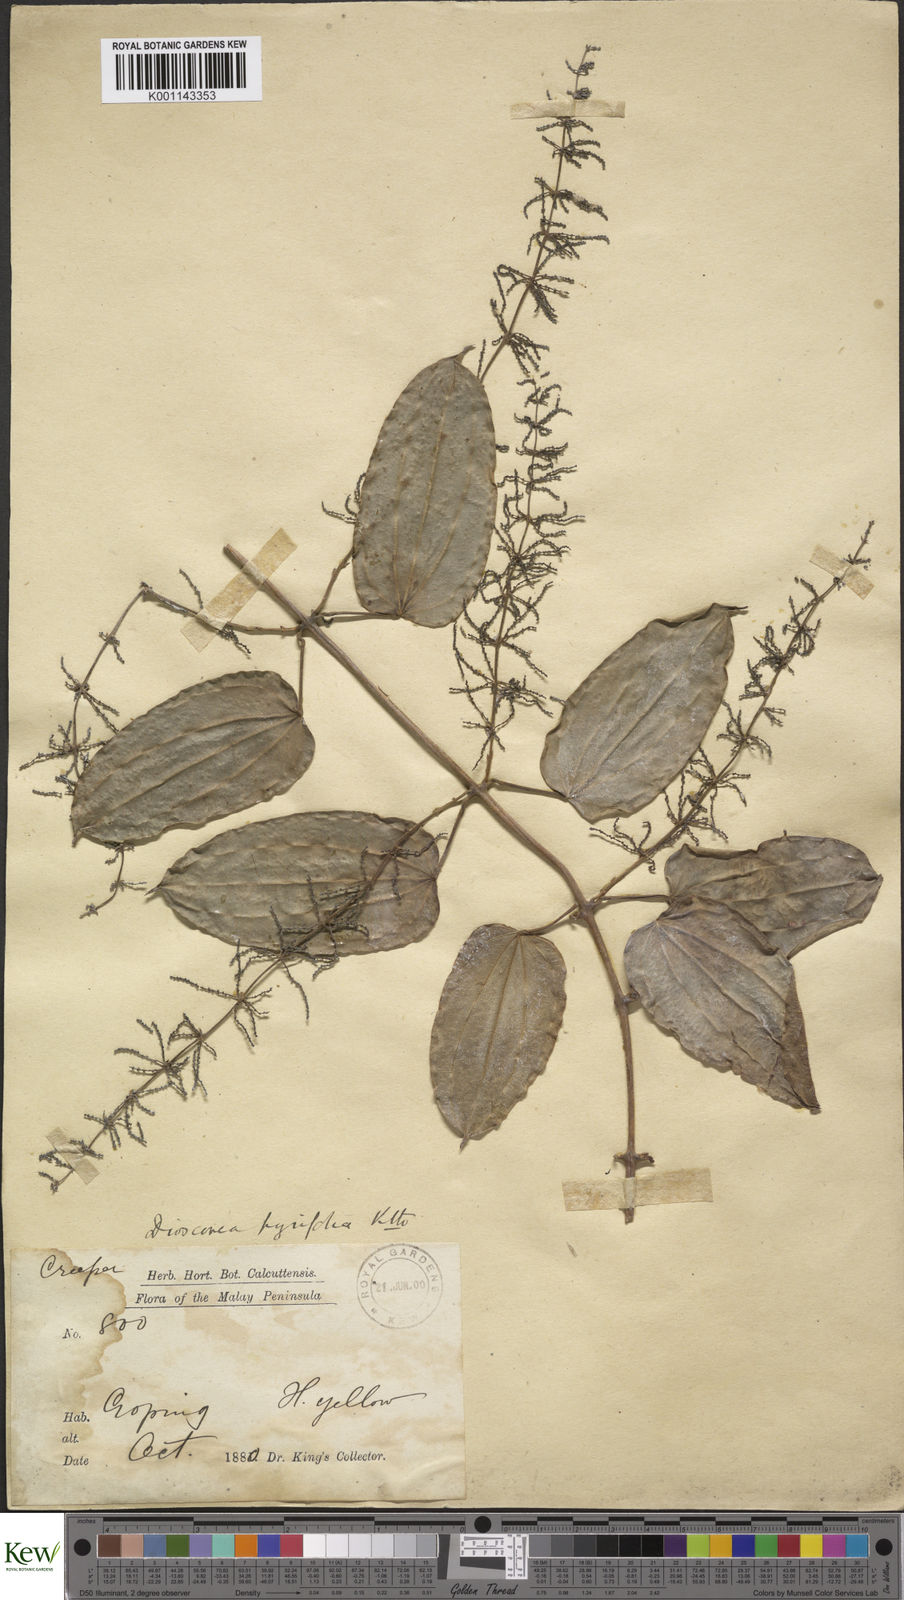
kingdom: Plantae
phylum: Tracheophyta
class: Liliopsida
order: Dioscoreales
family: Dioscoreaceae
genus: Dioscorea
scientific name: Dioscorea pyrifolia
